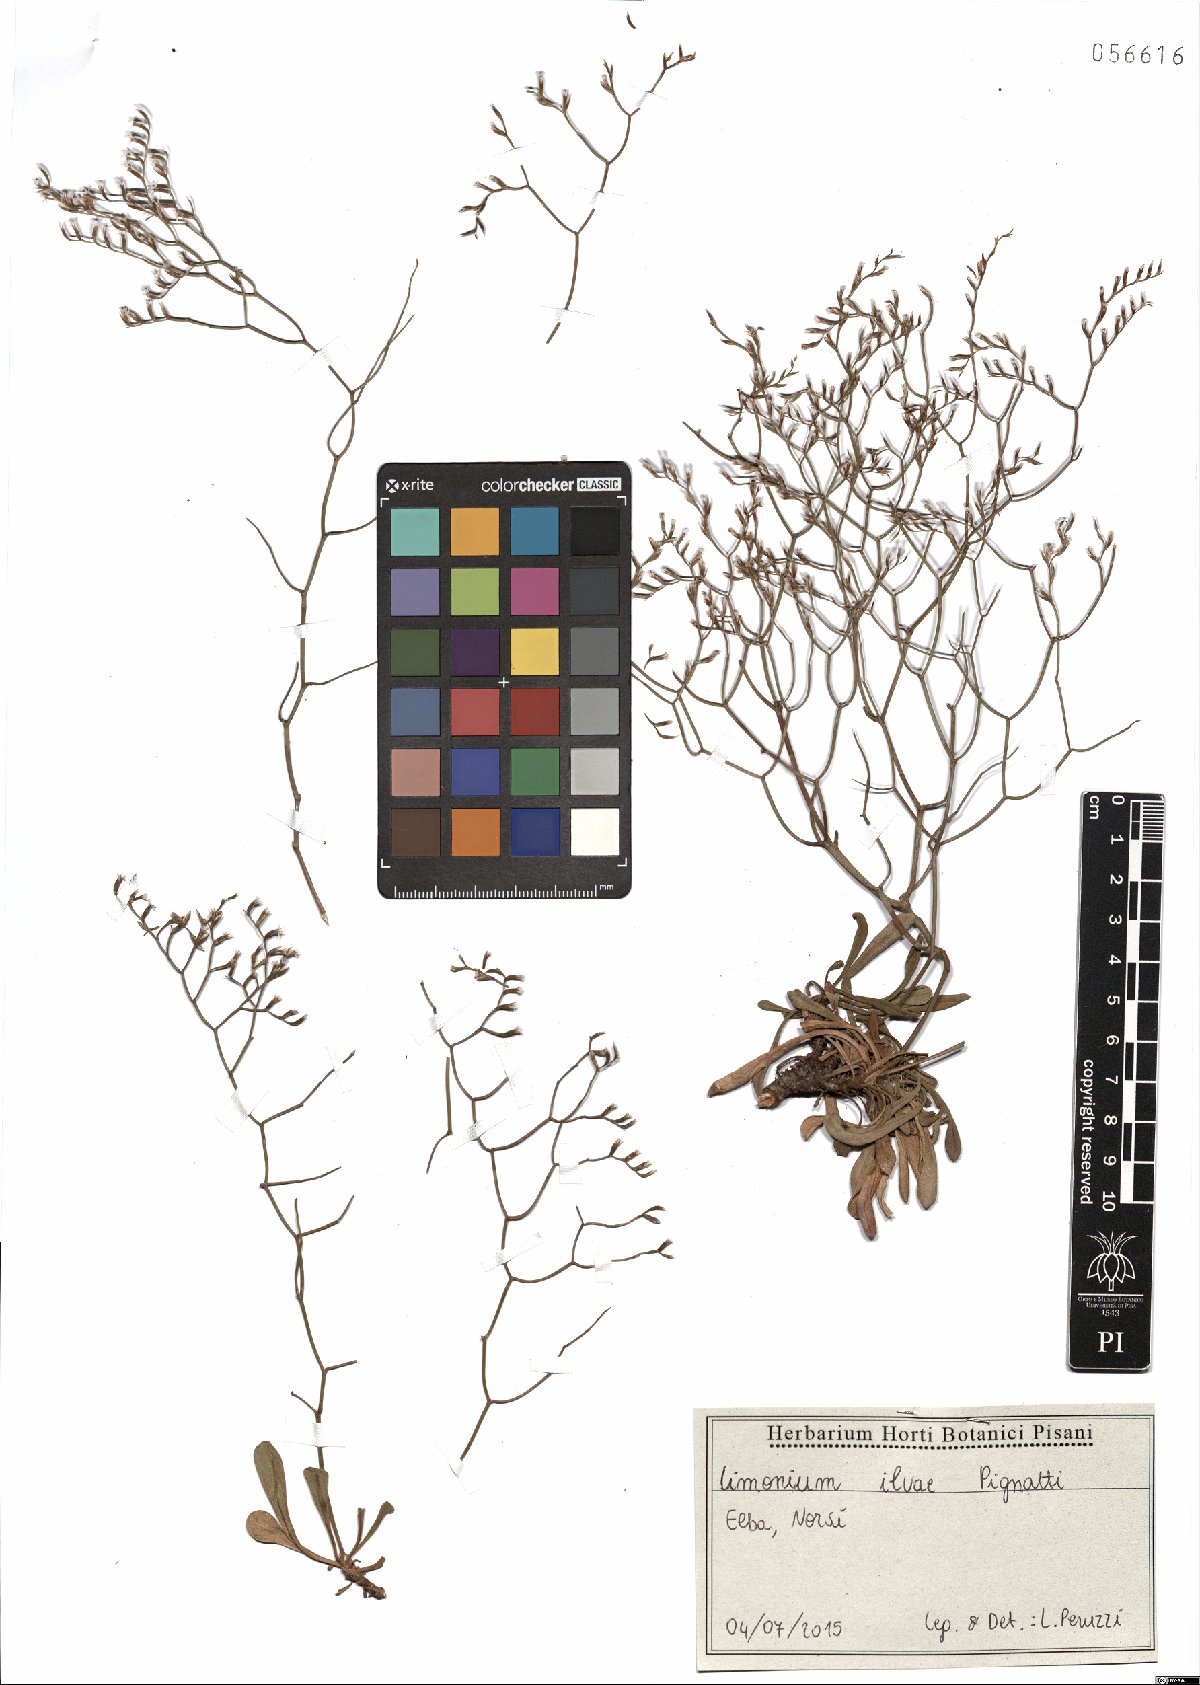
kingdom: Plantae
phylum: Tracheophyta
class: Magnoliopsida
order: Caryophyllales
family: Plumbaginaceae
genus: Limonium
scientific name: Limonium ilvae
